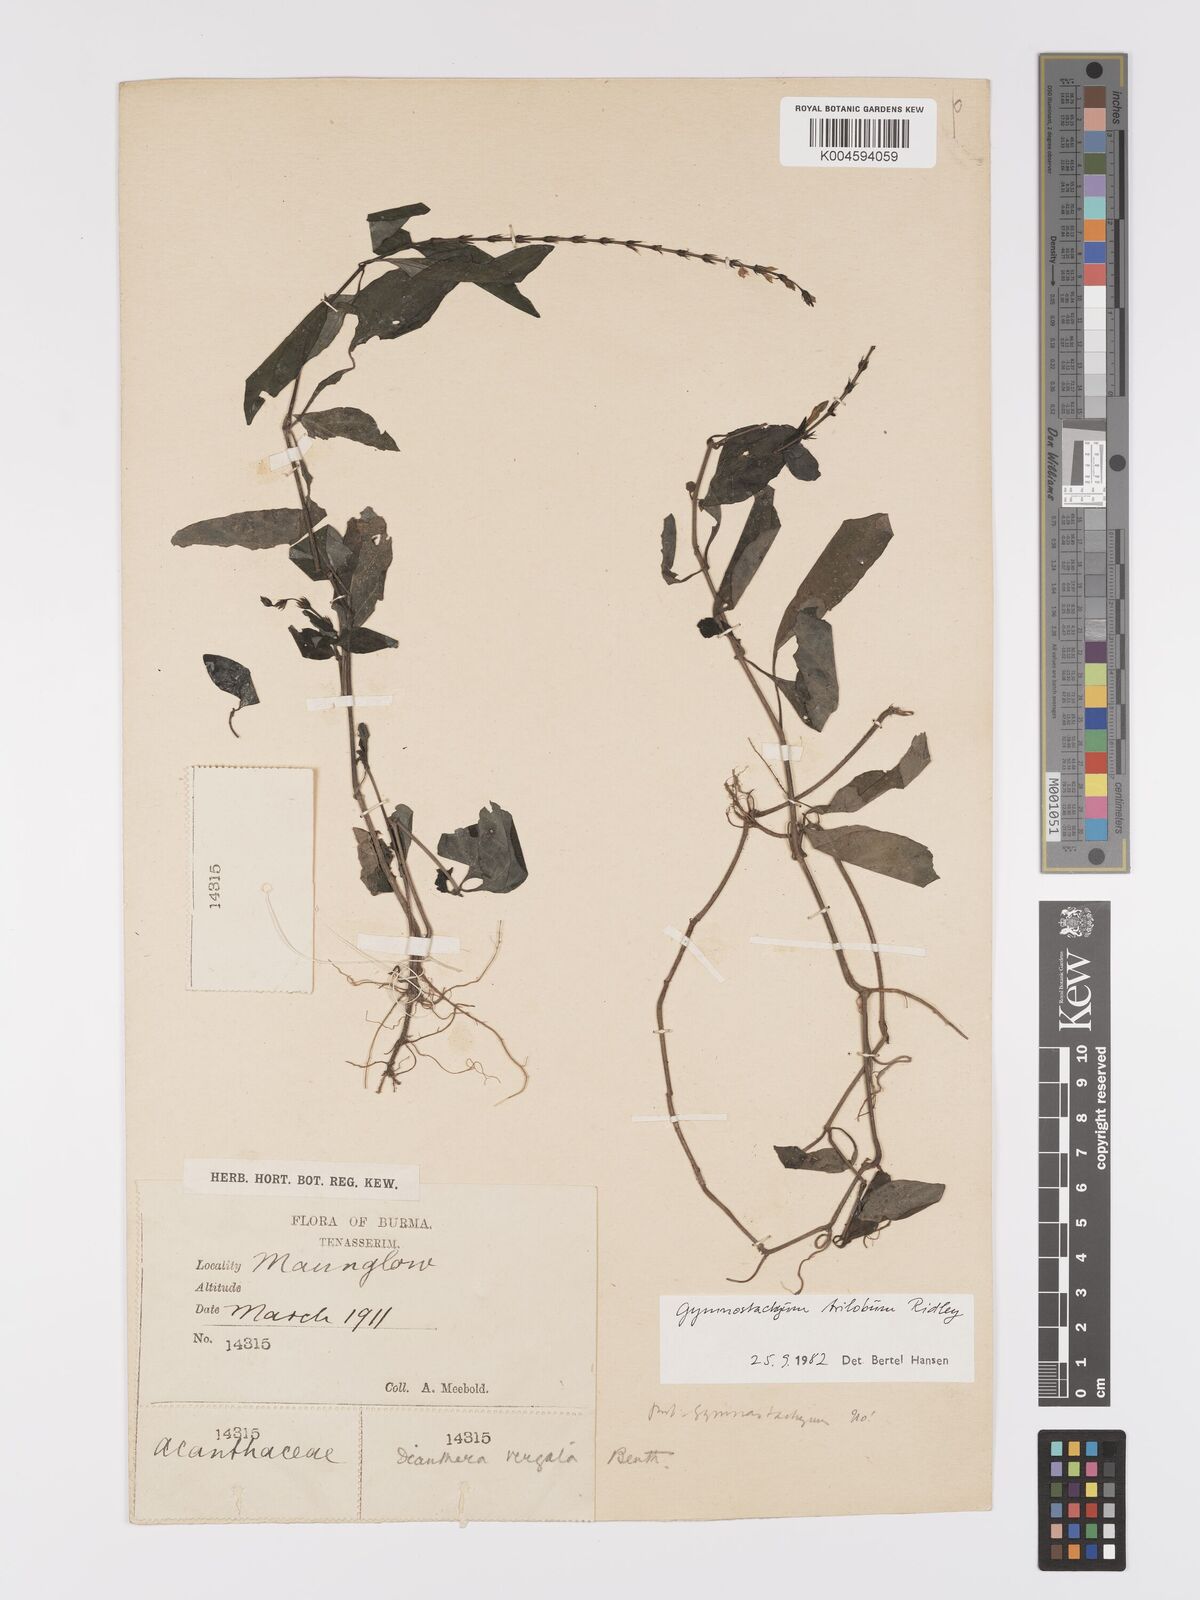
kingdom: Plantae
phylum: Tracheophyta
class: Magnoliopsida
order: Lamiales
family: Acanthaceae
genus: Gymnostachyum
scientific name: Gymnostachyum trilobum
